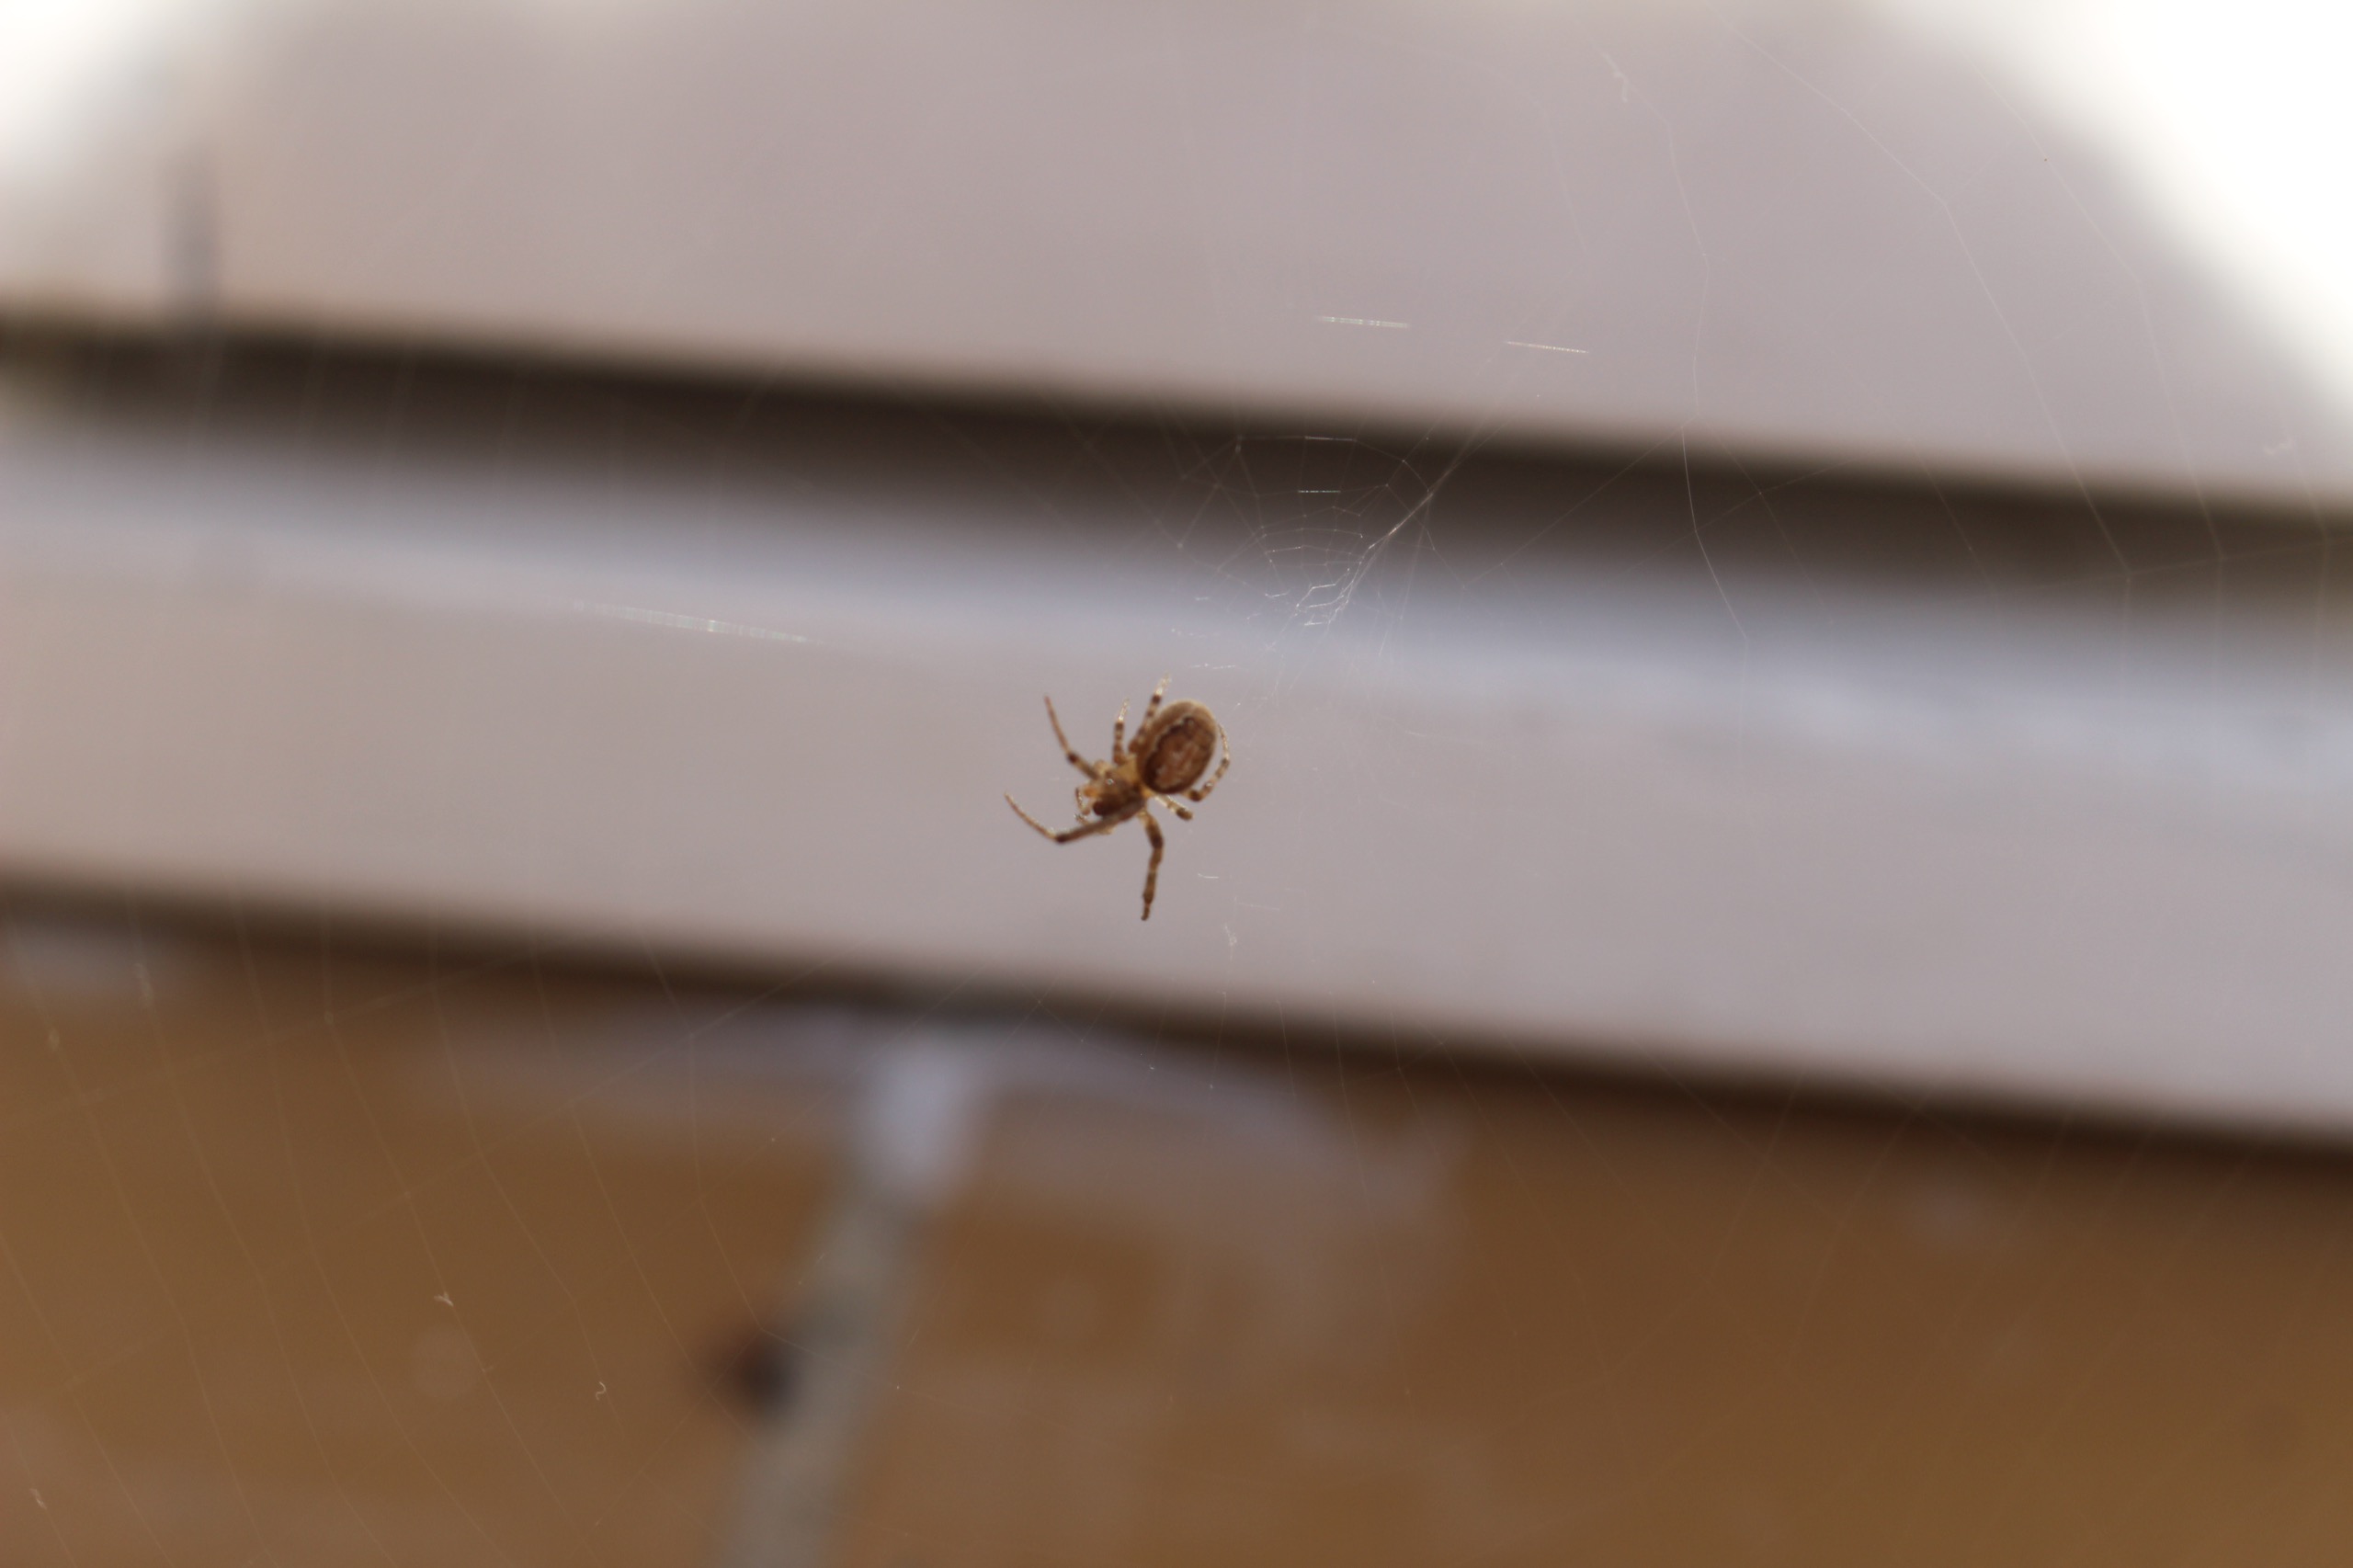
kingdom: Animalia
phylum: Arthropoda
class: Arachnida
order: Araneae
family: Araneidae
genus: Araneus
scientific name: Araneus diadematus
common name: Korsedderkop
